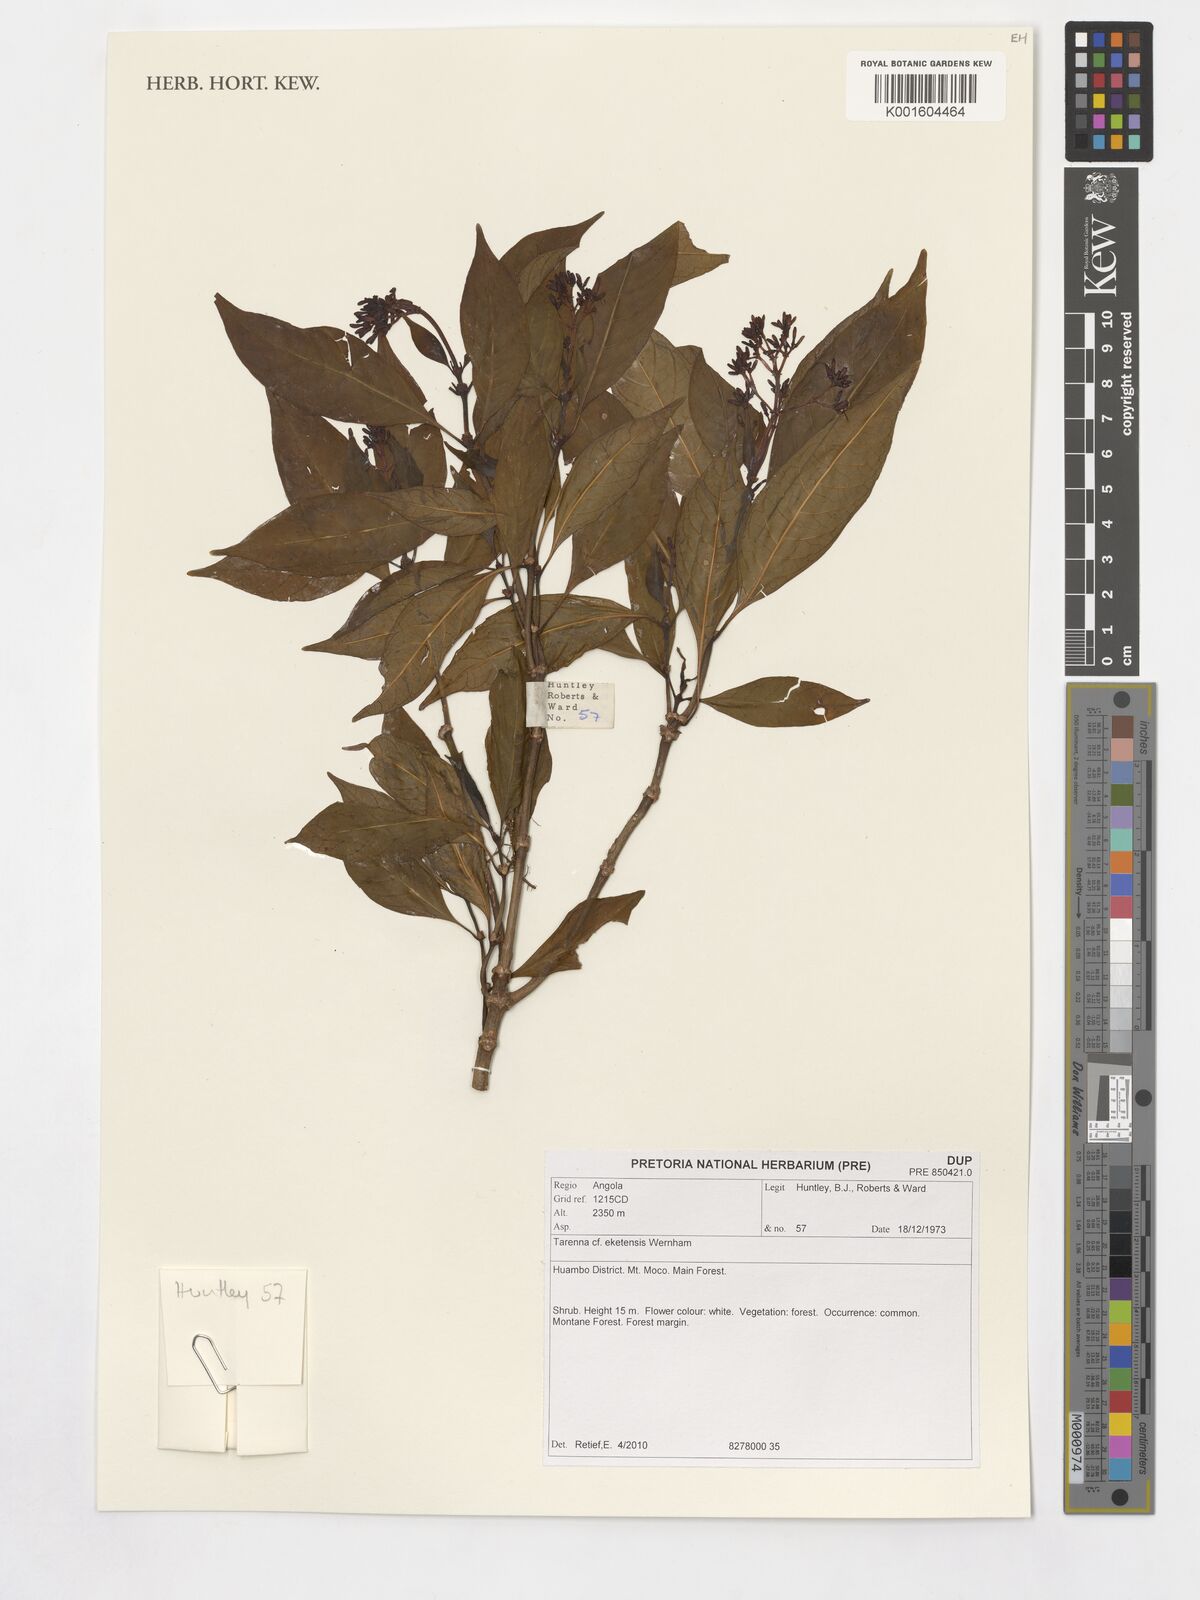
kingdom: Plantae
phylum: Tracheophyta
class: Magnoliopsida
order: Gentianales
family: Rubiaceae
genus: Tarenna
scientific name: Tarenna eketensis
